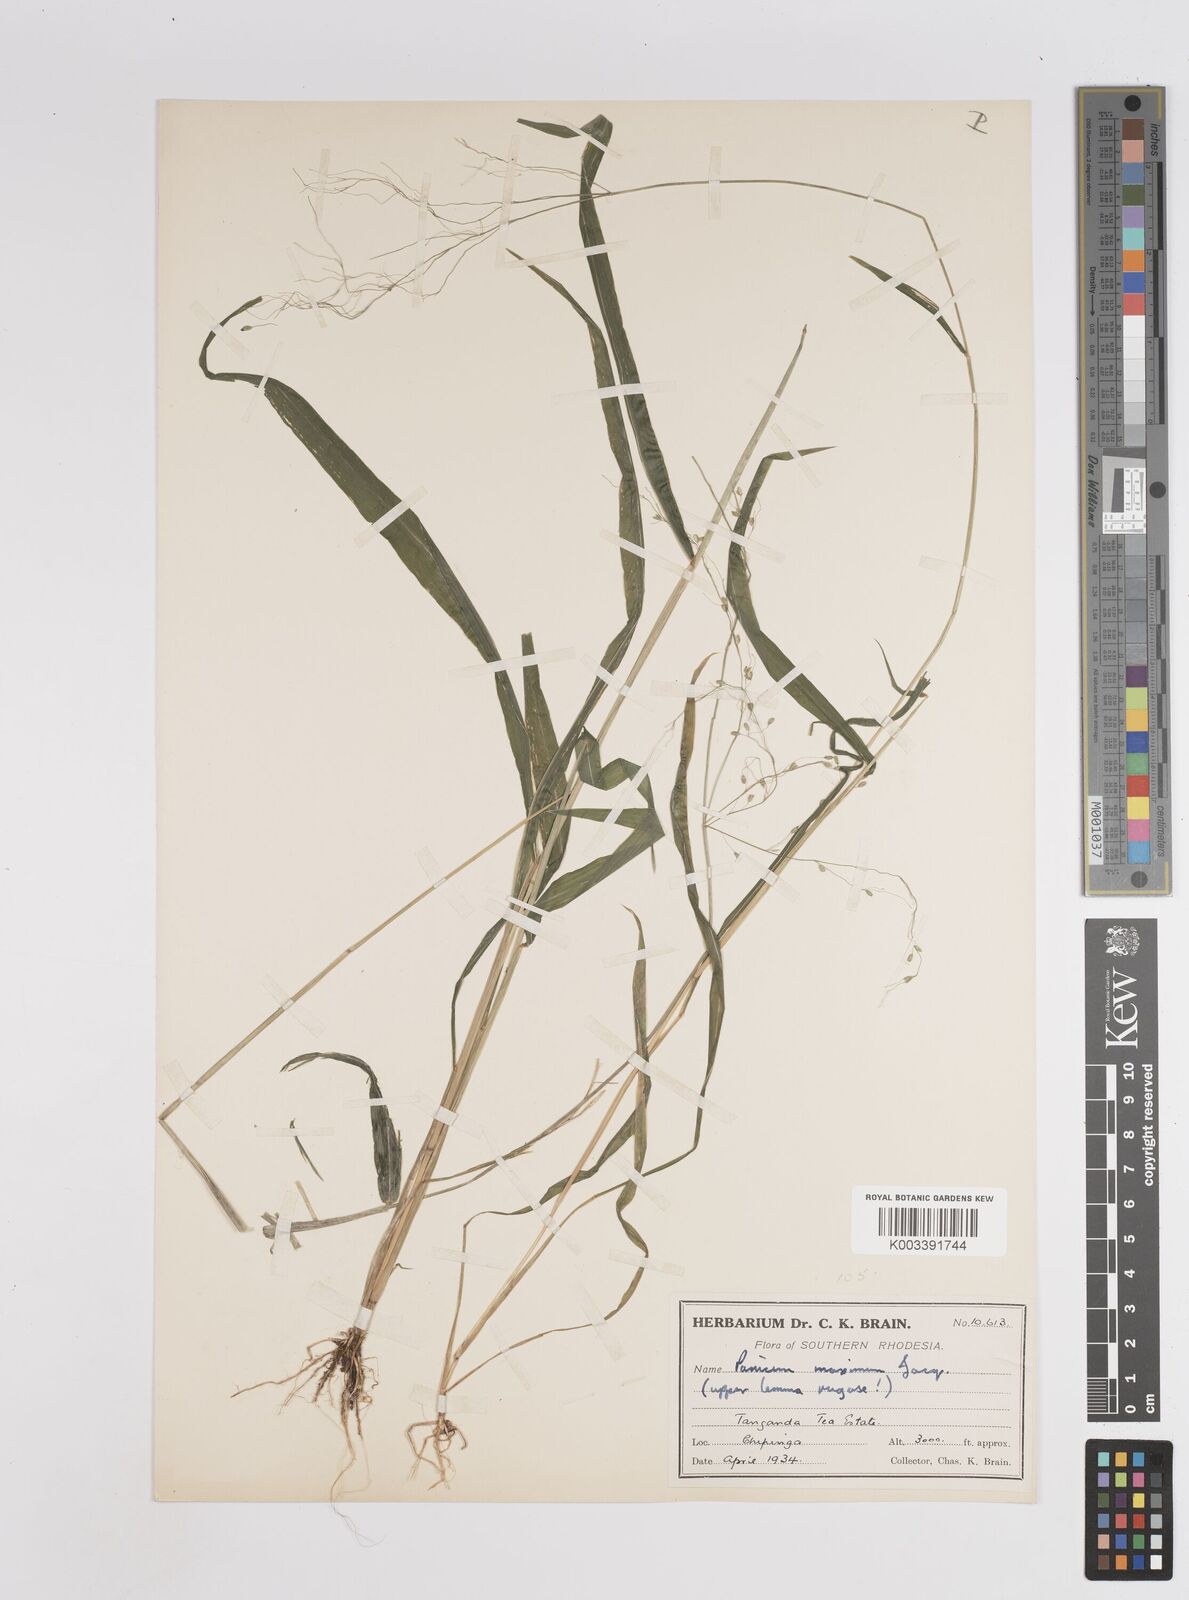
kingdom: Plantae
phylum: Tracheophyta
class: Liliopsida
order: Poales
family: Poaceae
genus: Megathyrsus
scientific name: Megathyrsus maximus
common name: Guineagrass
